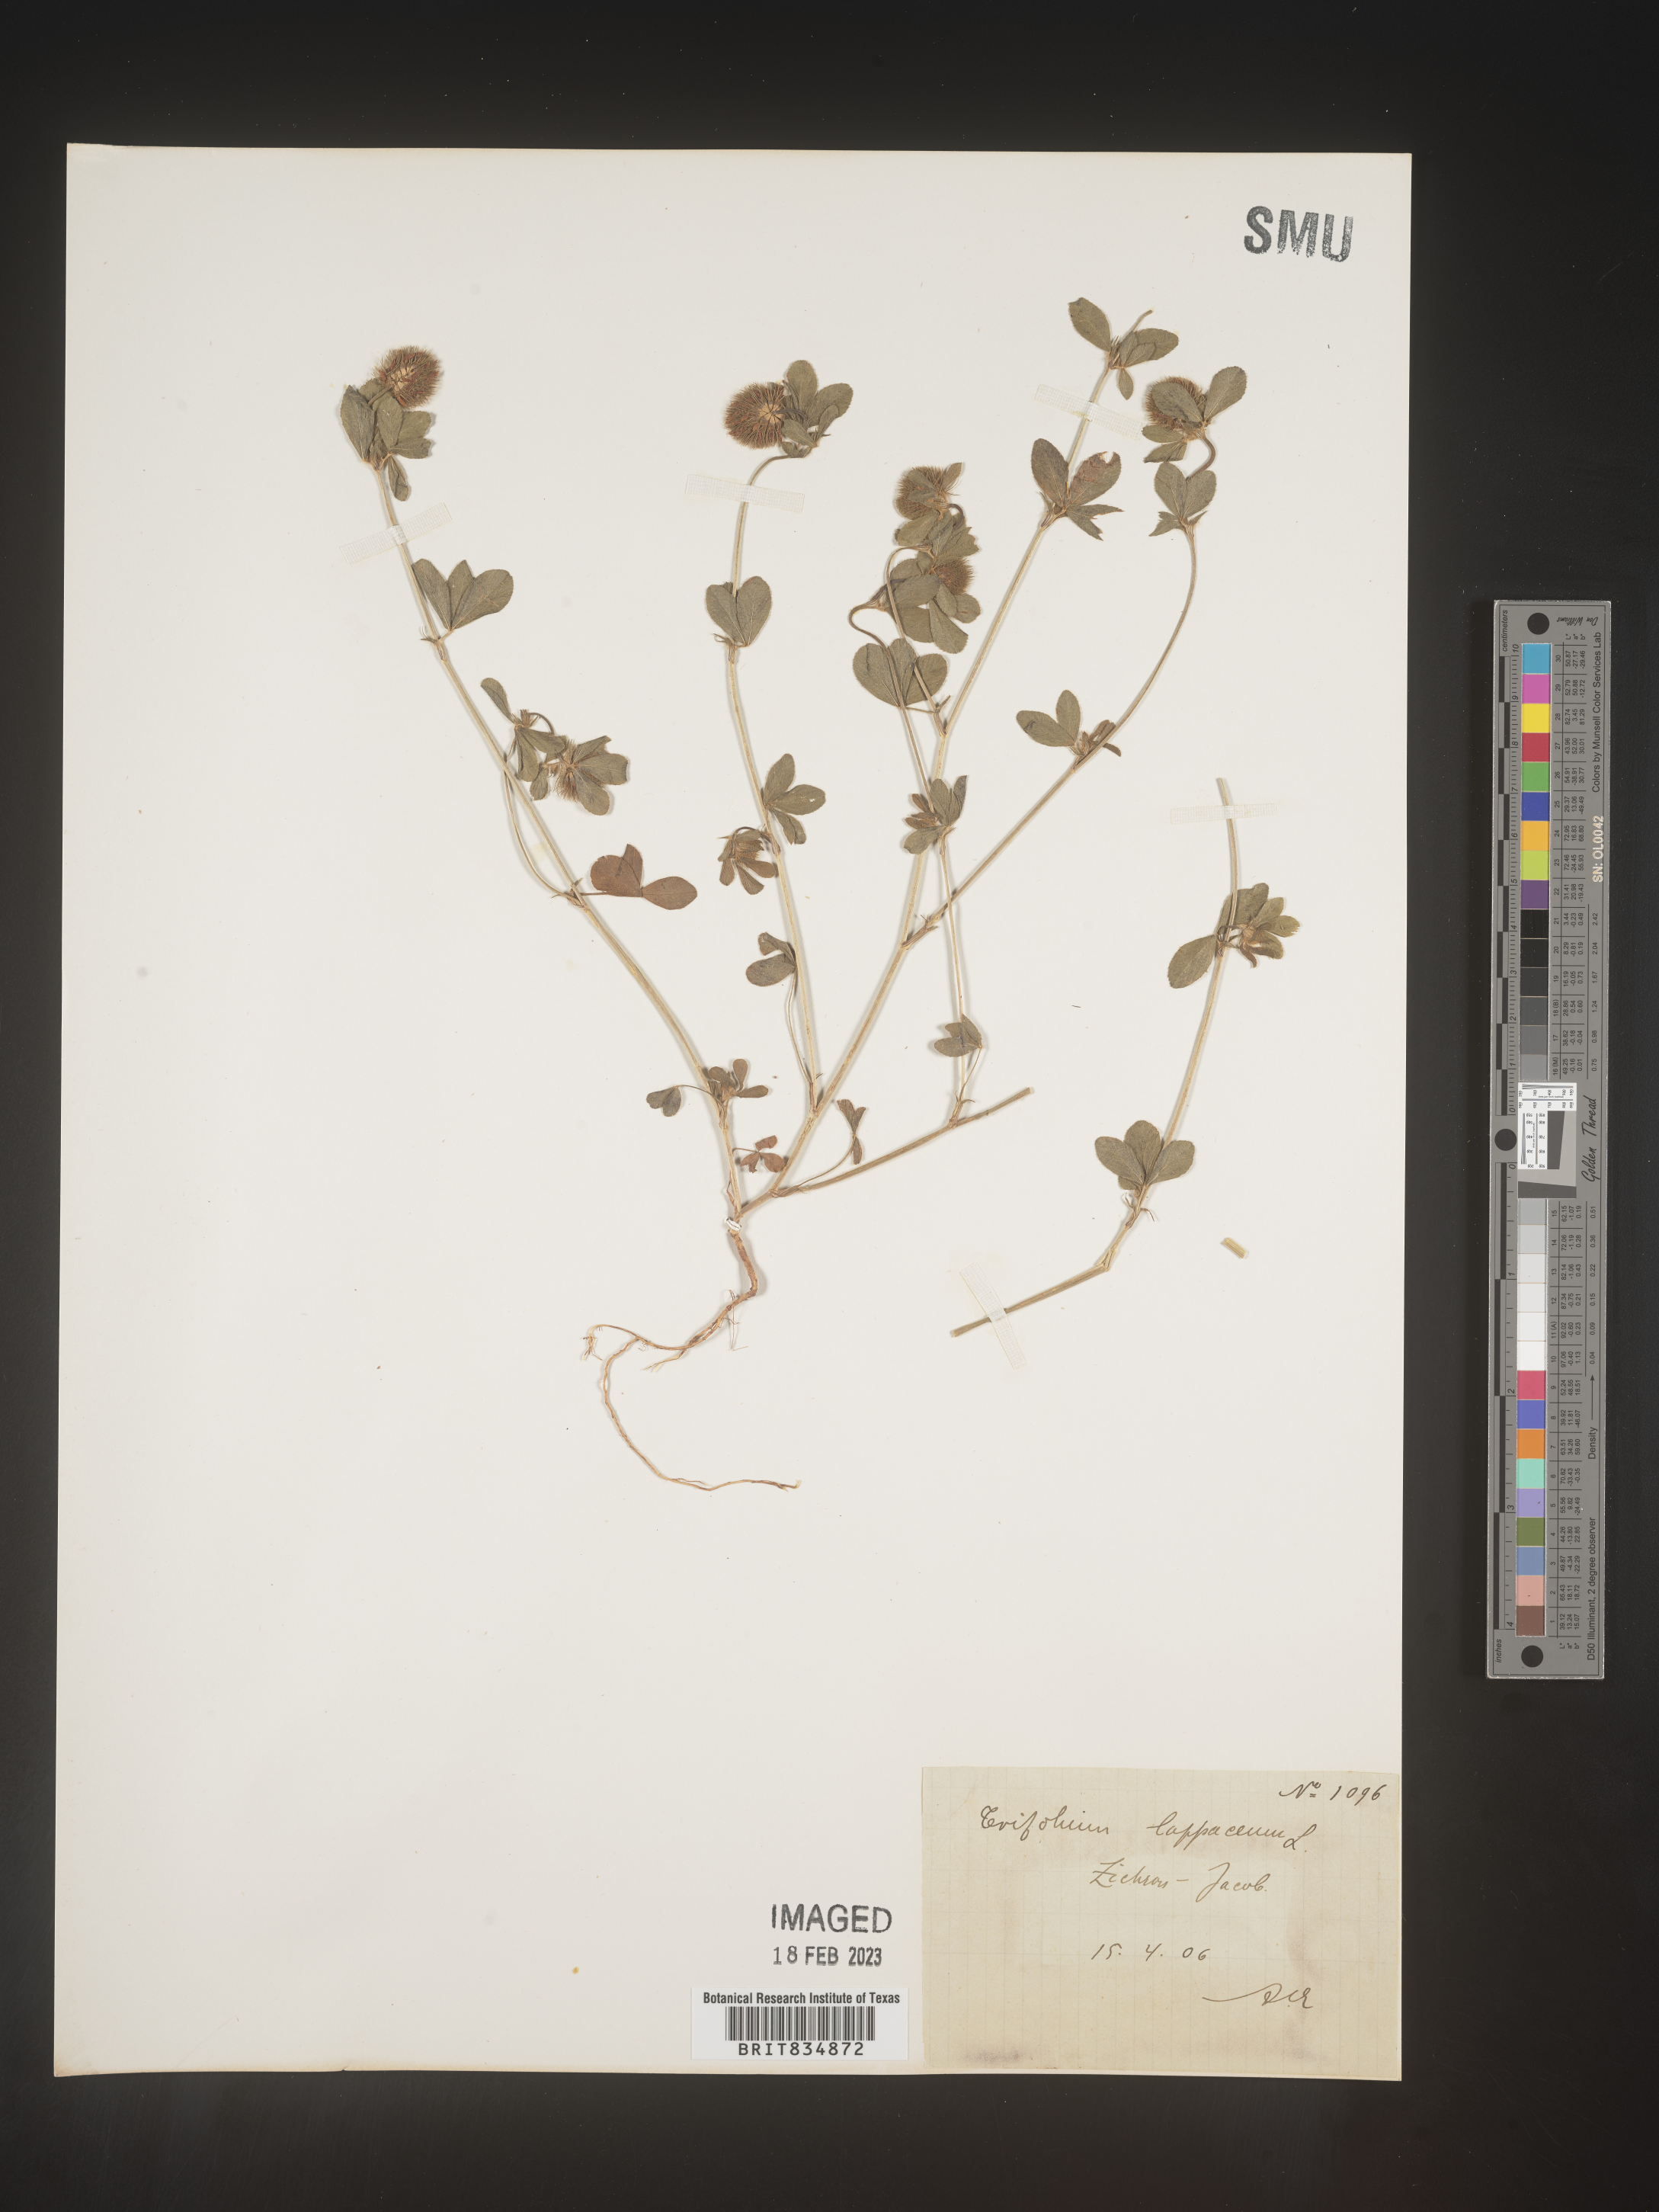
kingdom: Plantae
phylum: Tracheophyta
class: Magnoliopsida
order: Fabales
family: Fabaceae
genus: Trifolium
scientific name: Trifolium incarnatum
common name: Crimson clover
